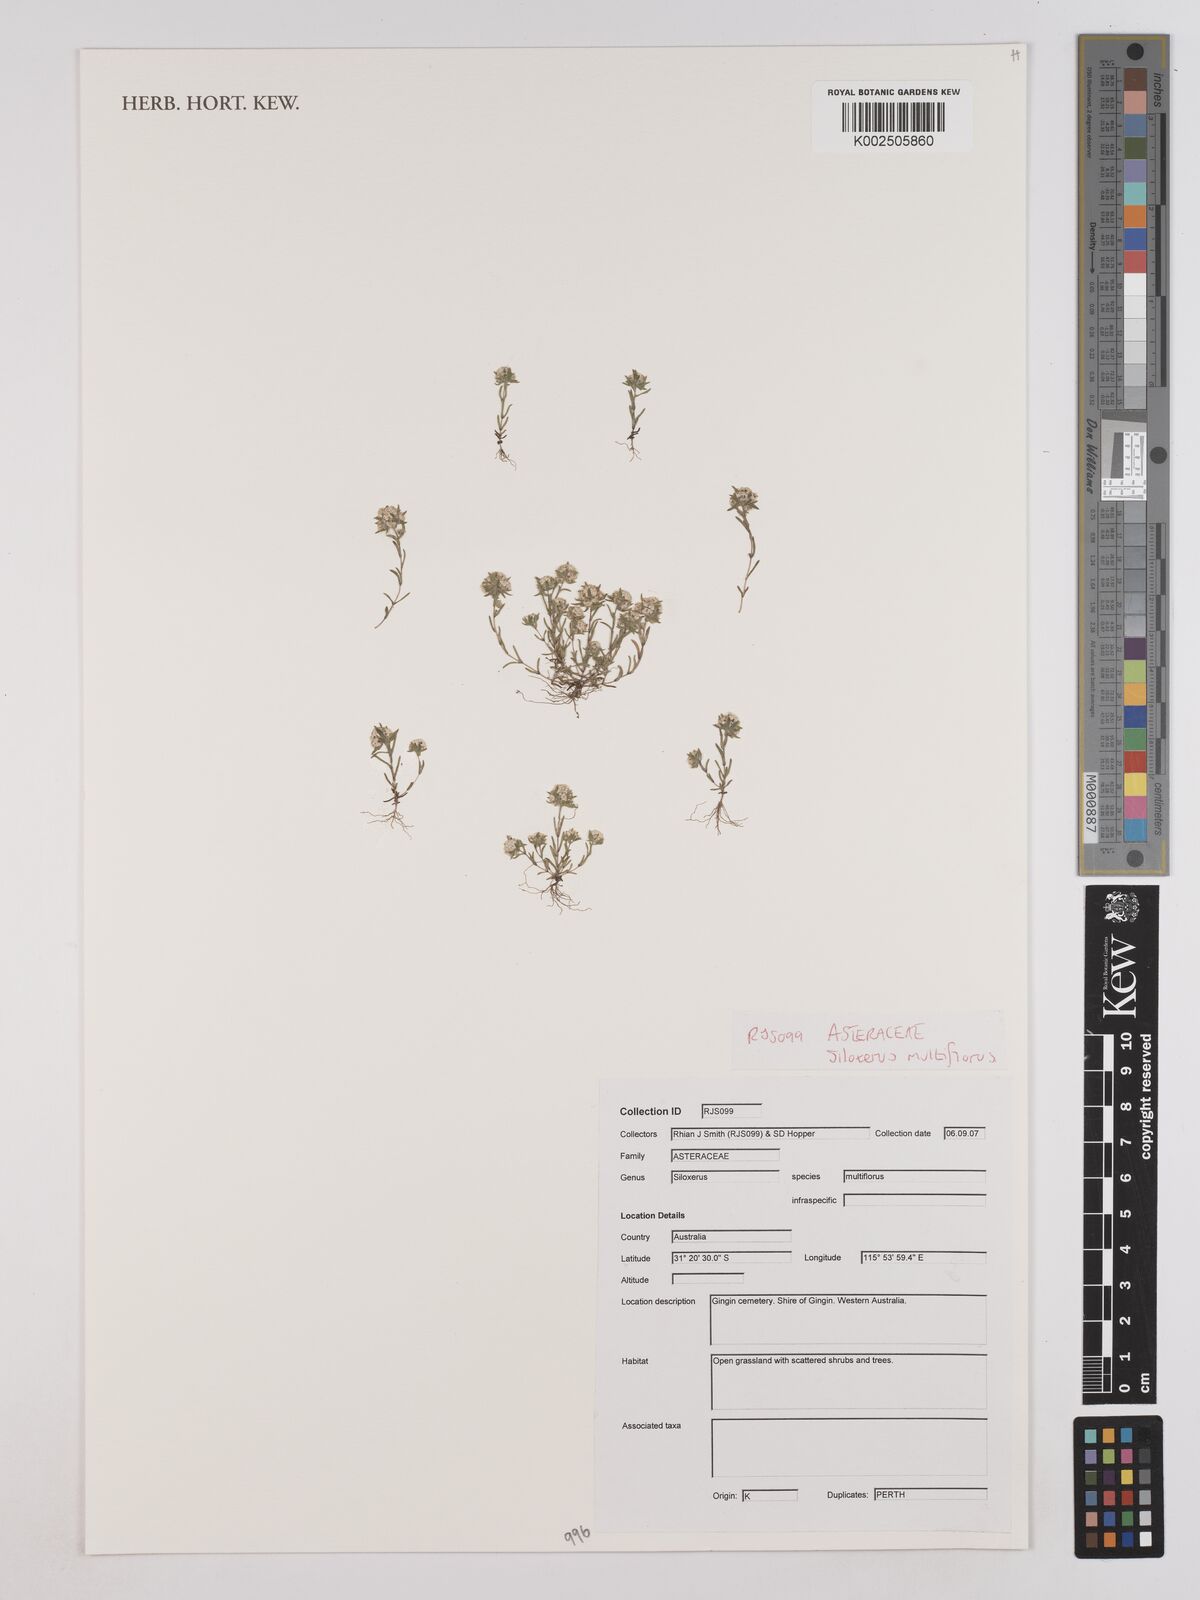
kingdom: Plantae
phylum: Tracheophyta
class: Magnoliopsida
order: Asterales
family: Asteraceae
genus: Siloxerus
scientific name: Siloxerus
